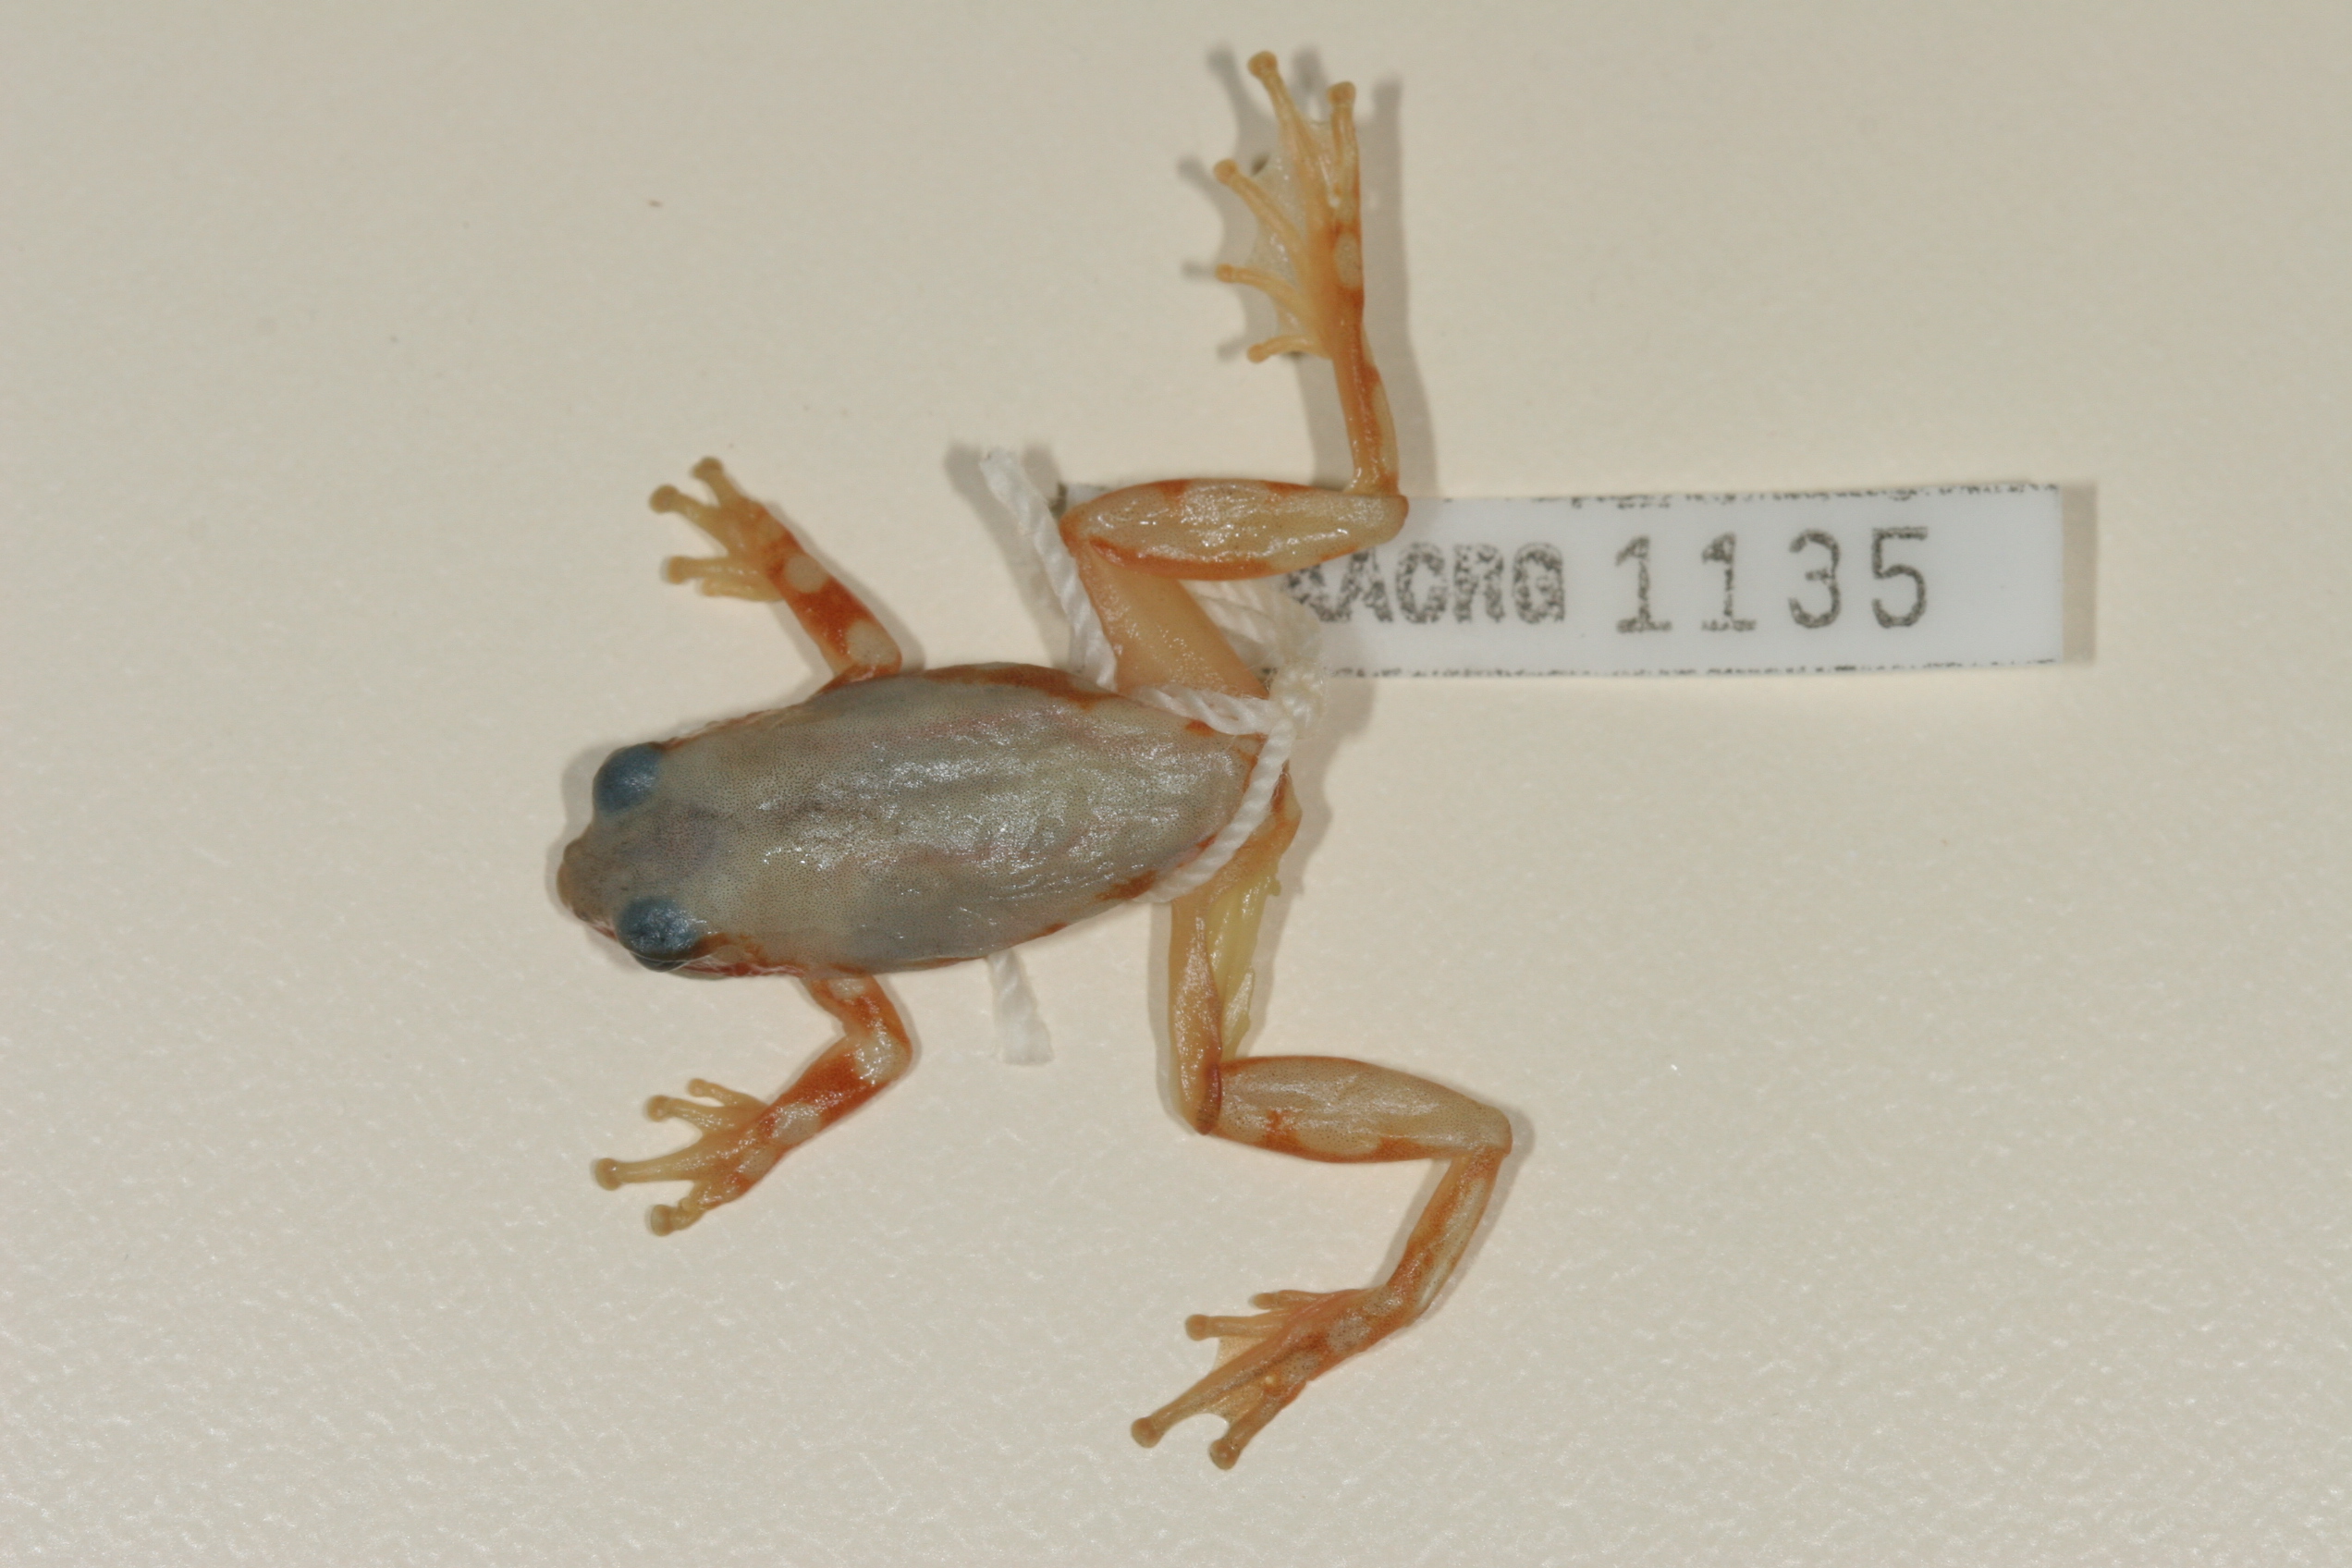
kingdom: Animalia
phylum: Chordata
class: Amphibia
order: Anura
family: Hyperoliidae
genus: Hyperolius
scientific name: Hyperolius pyrrhodictyon
